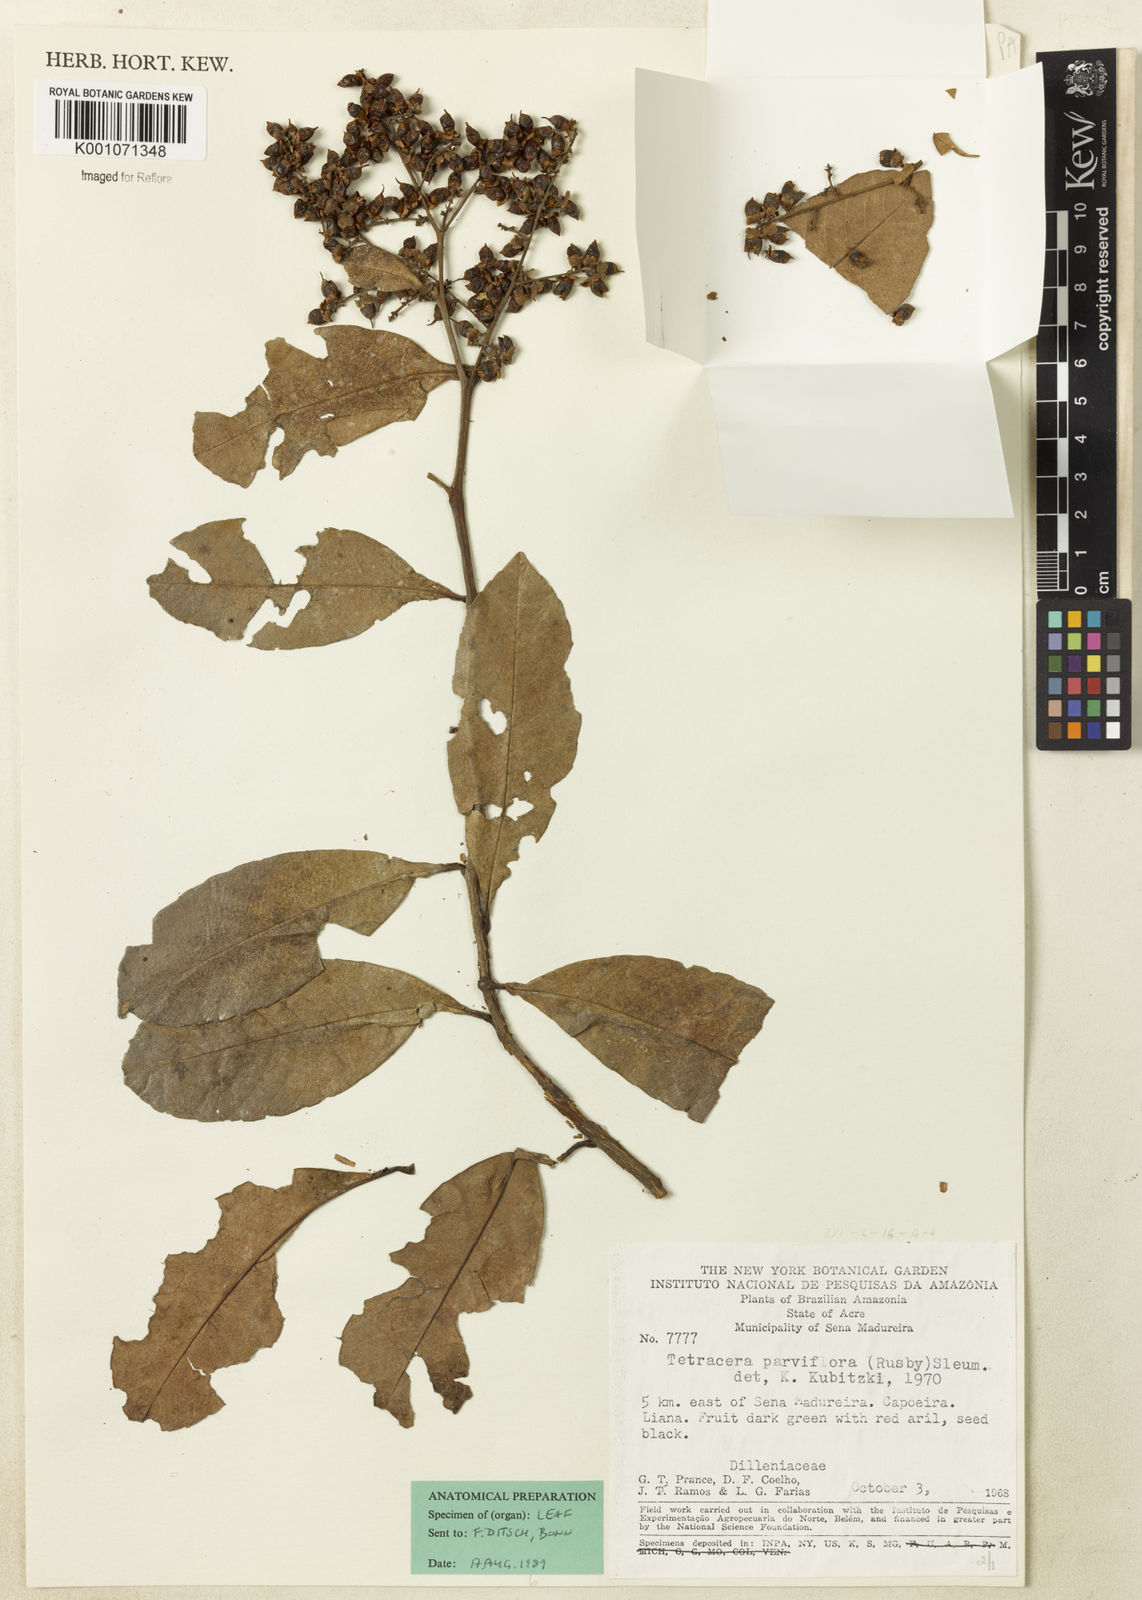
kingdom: Plantae
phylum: Tracheophyta
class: Magnoliopsida
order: Dilleniales
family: Dilleniaceae
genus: Tetracera
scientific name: Tetracera parviflora
